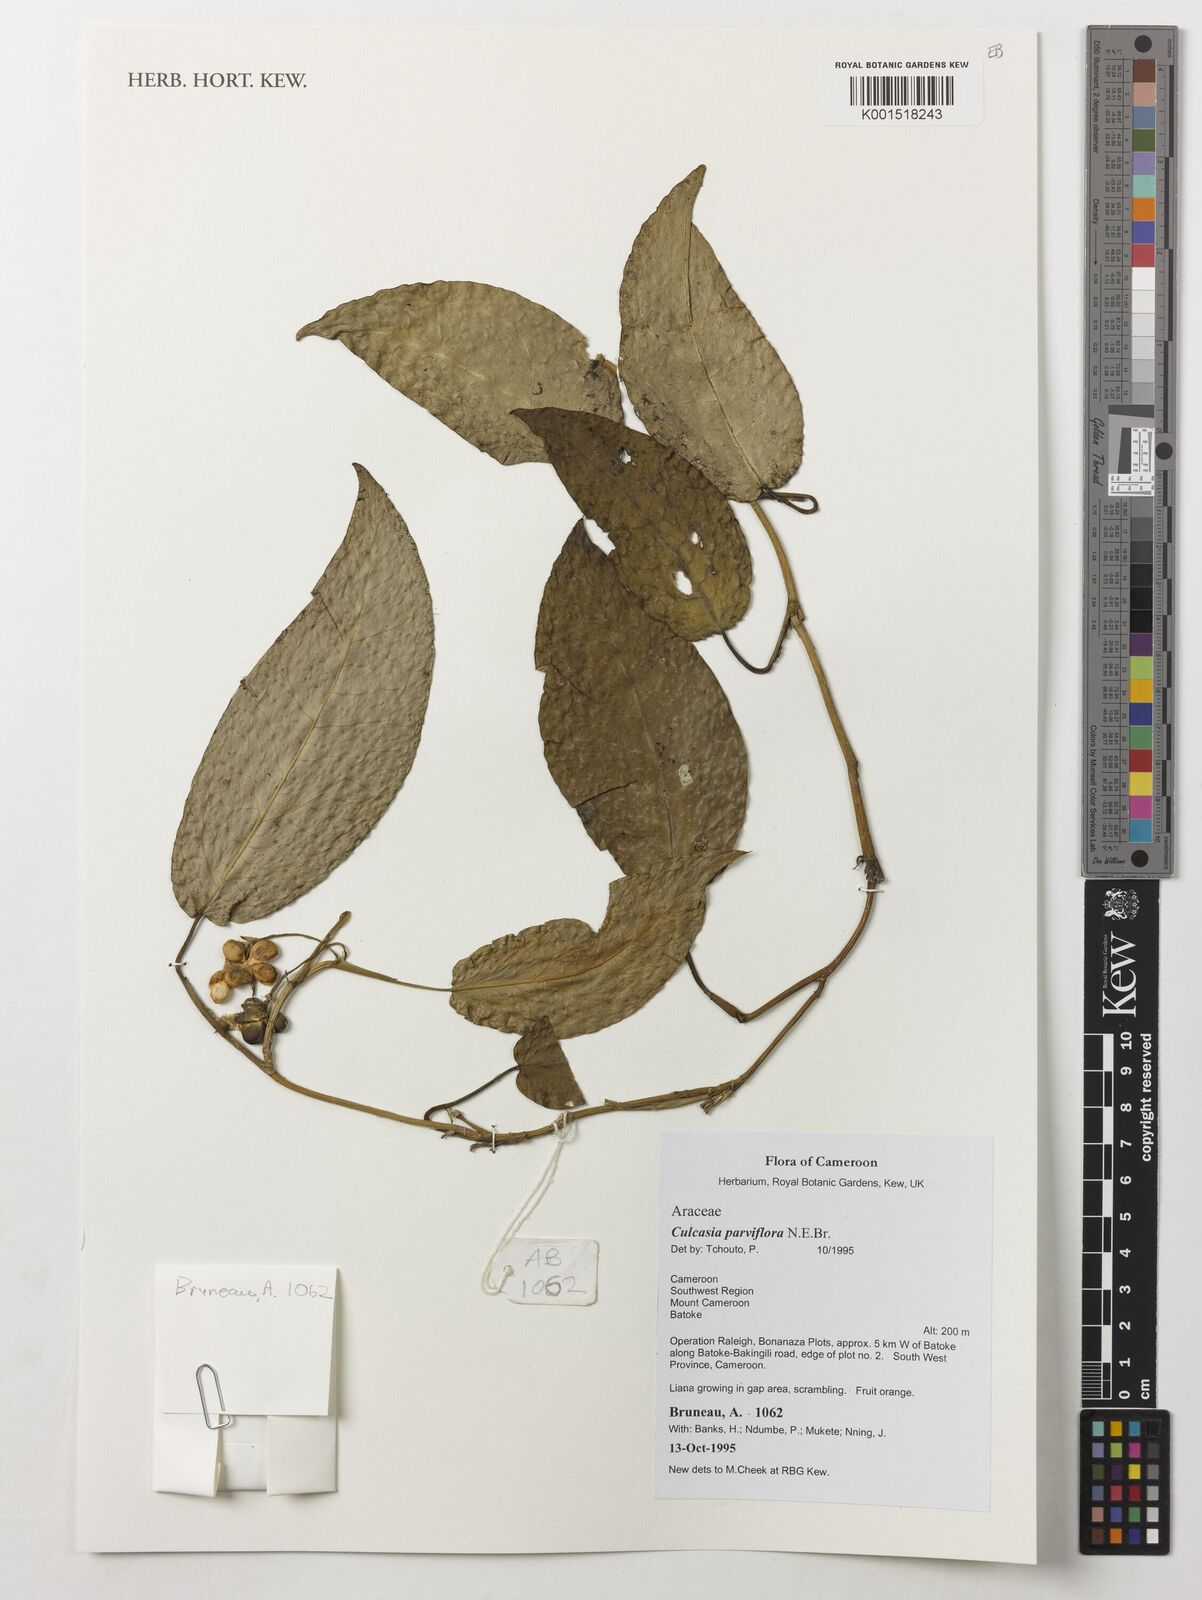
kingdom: Plantae
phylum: Tracheophyta
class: Liliopsida
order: Alismatales
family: Araceae
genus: Culcasia
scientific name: Culcasia parviflora
